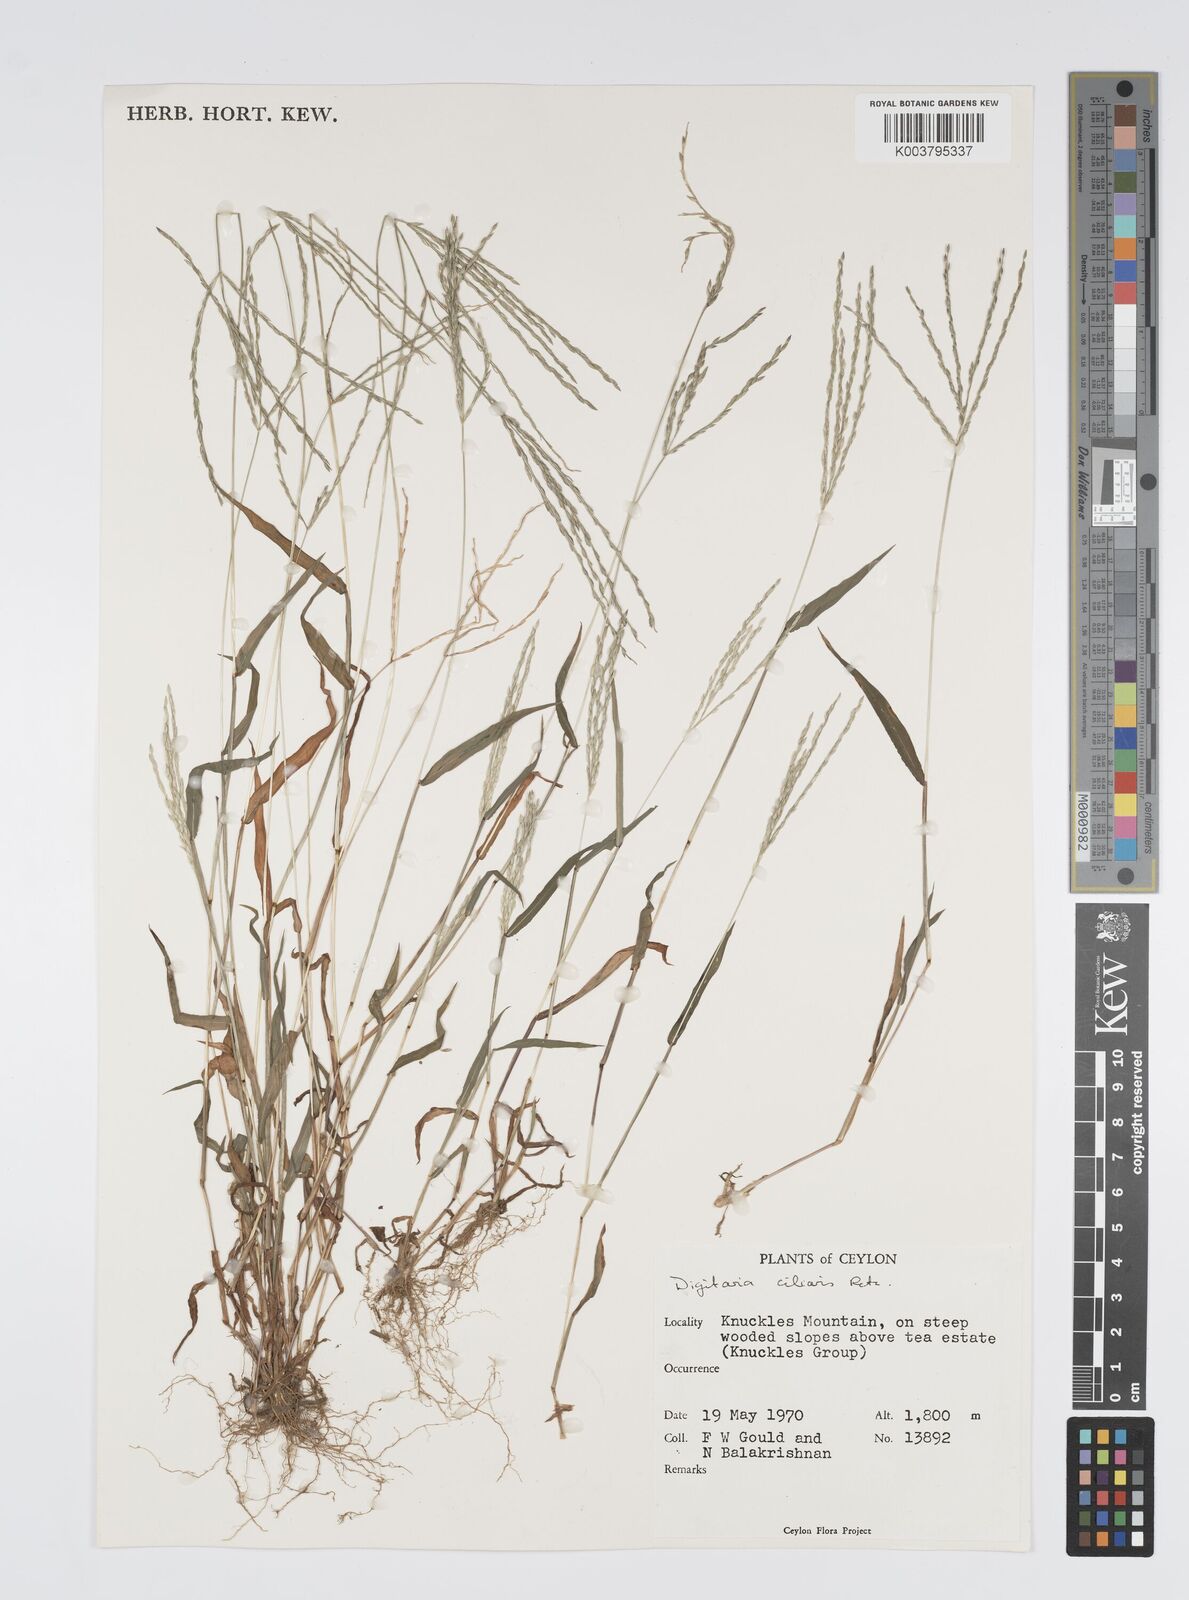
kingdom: Plantae
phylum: Tracheophyta
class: Liliopsida
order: Poales
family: Poaceae
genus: Digitaria
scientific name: Digitaria ciliaris
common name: Tropical finger-grass
